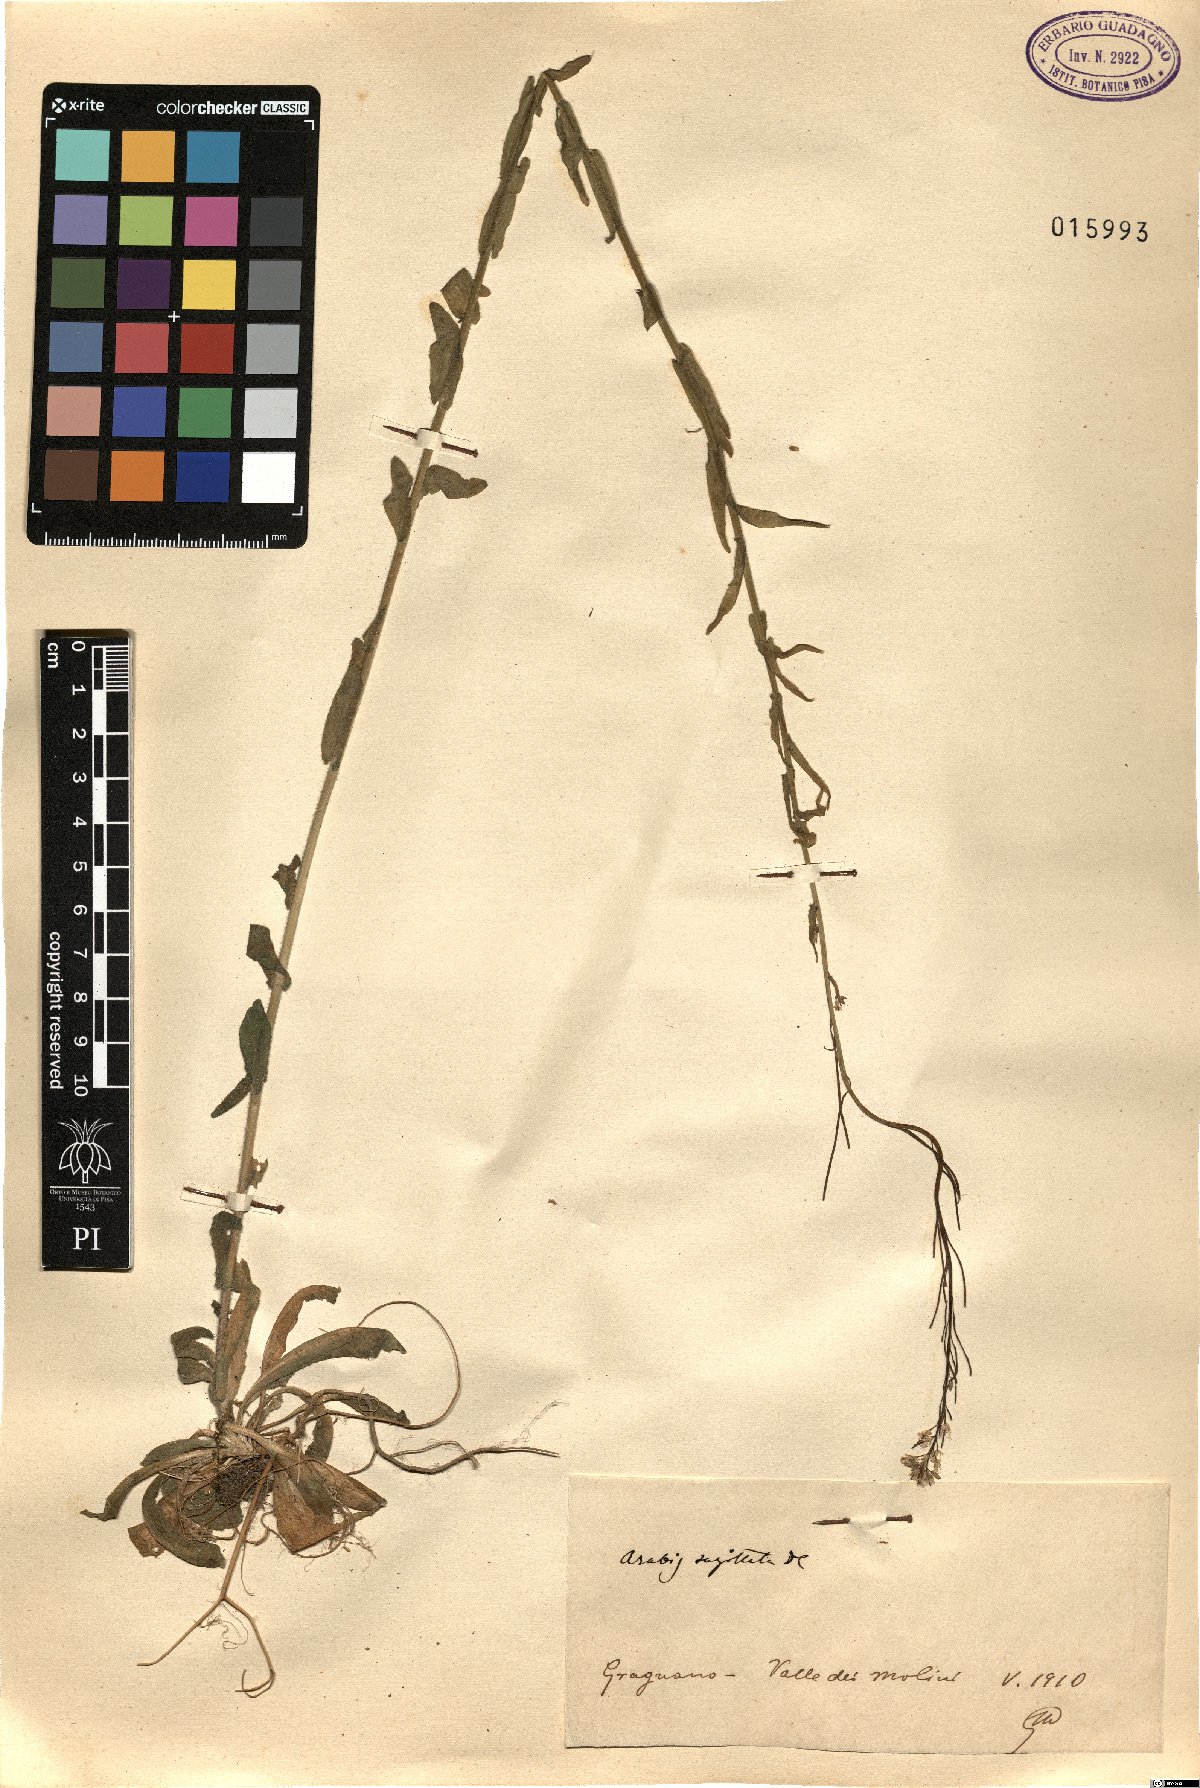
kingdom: Plantae
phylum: Tracheophyta
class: Magnoliopsida
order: Brassicales
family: Brassicaceae
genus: Arabis
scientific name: Arabis sagittata
